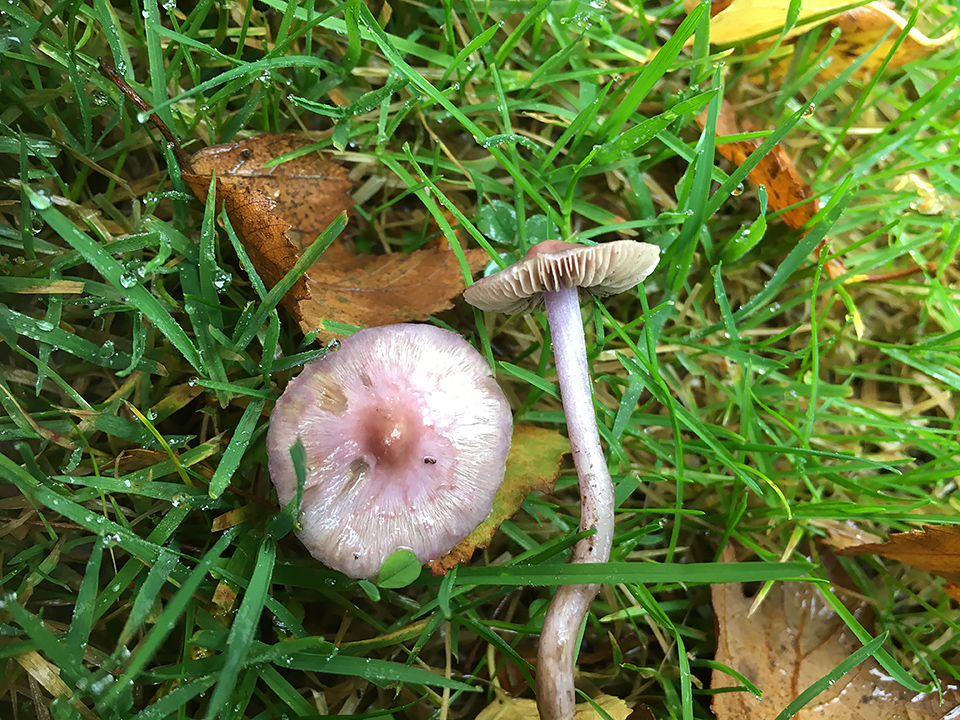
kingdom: Fungi
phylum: Basidiomycota
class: Agaricomycetes
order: Agaricales
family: Inocybaceae
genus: Inocybe
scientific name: Inocybe geophylla
